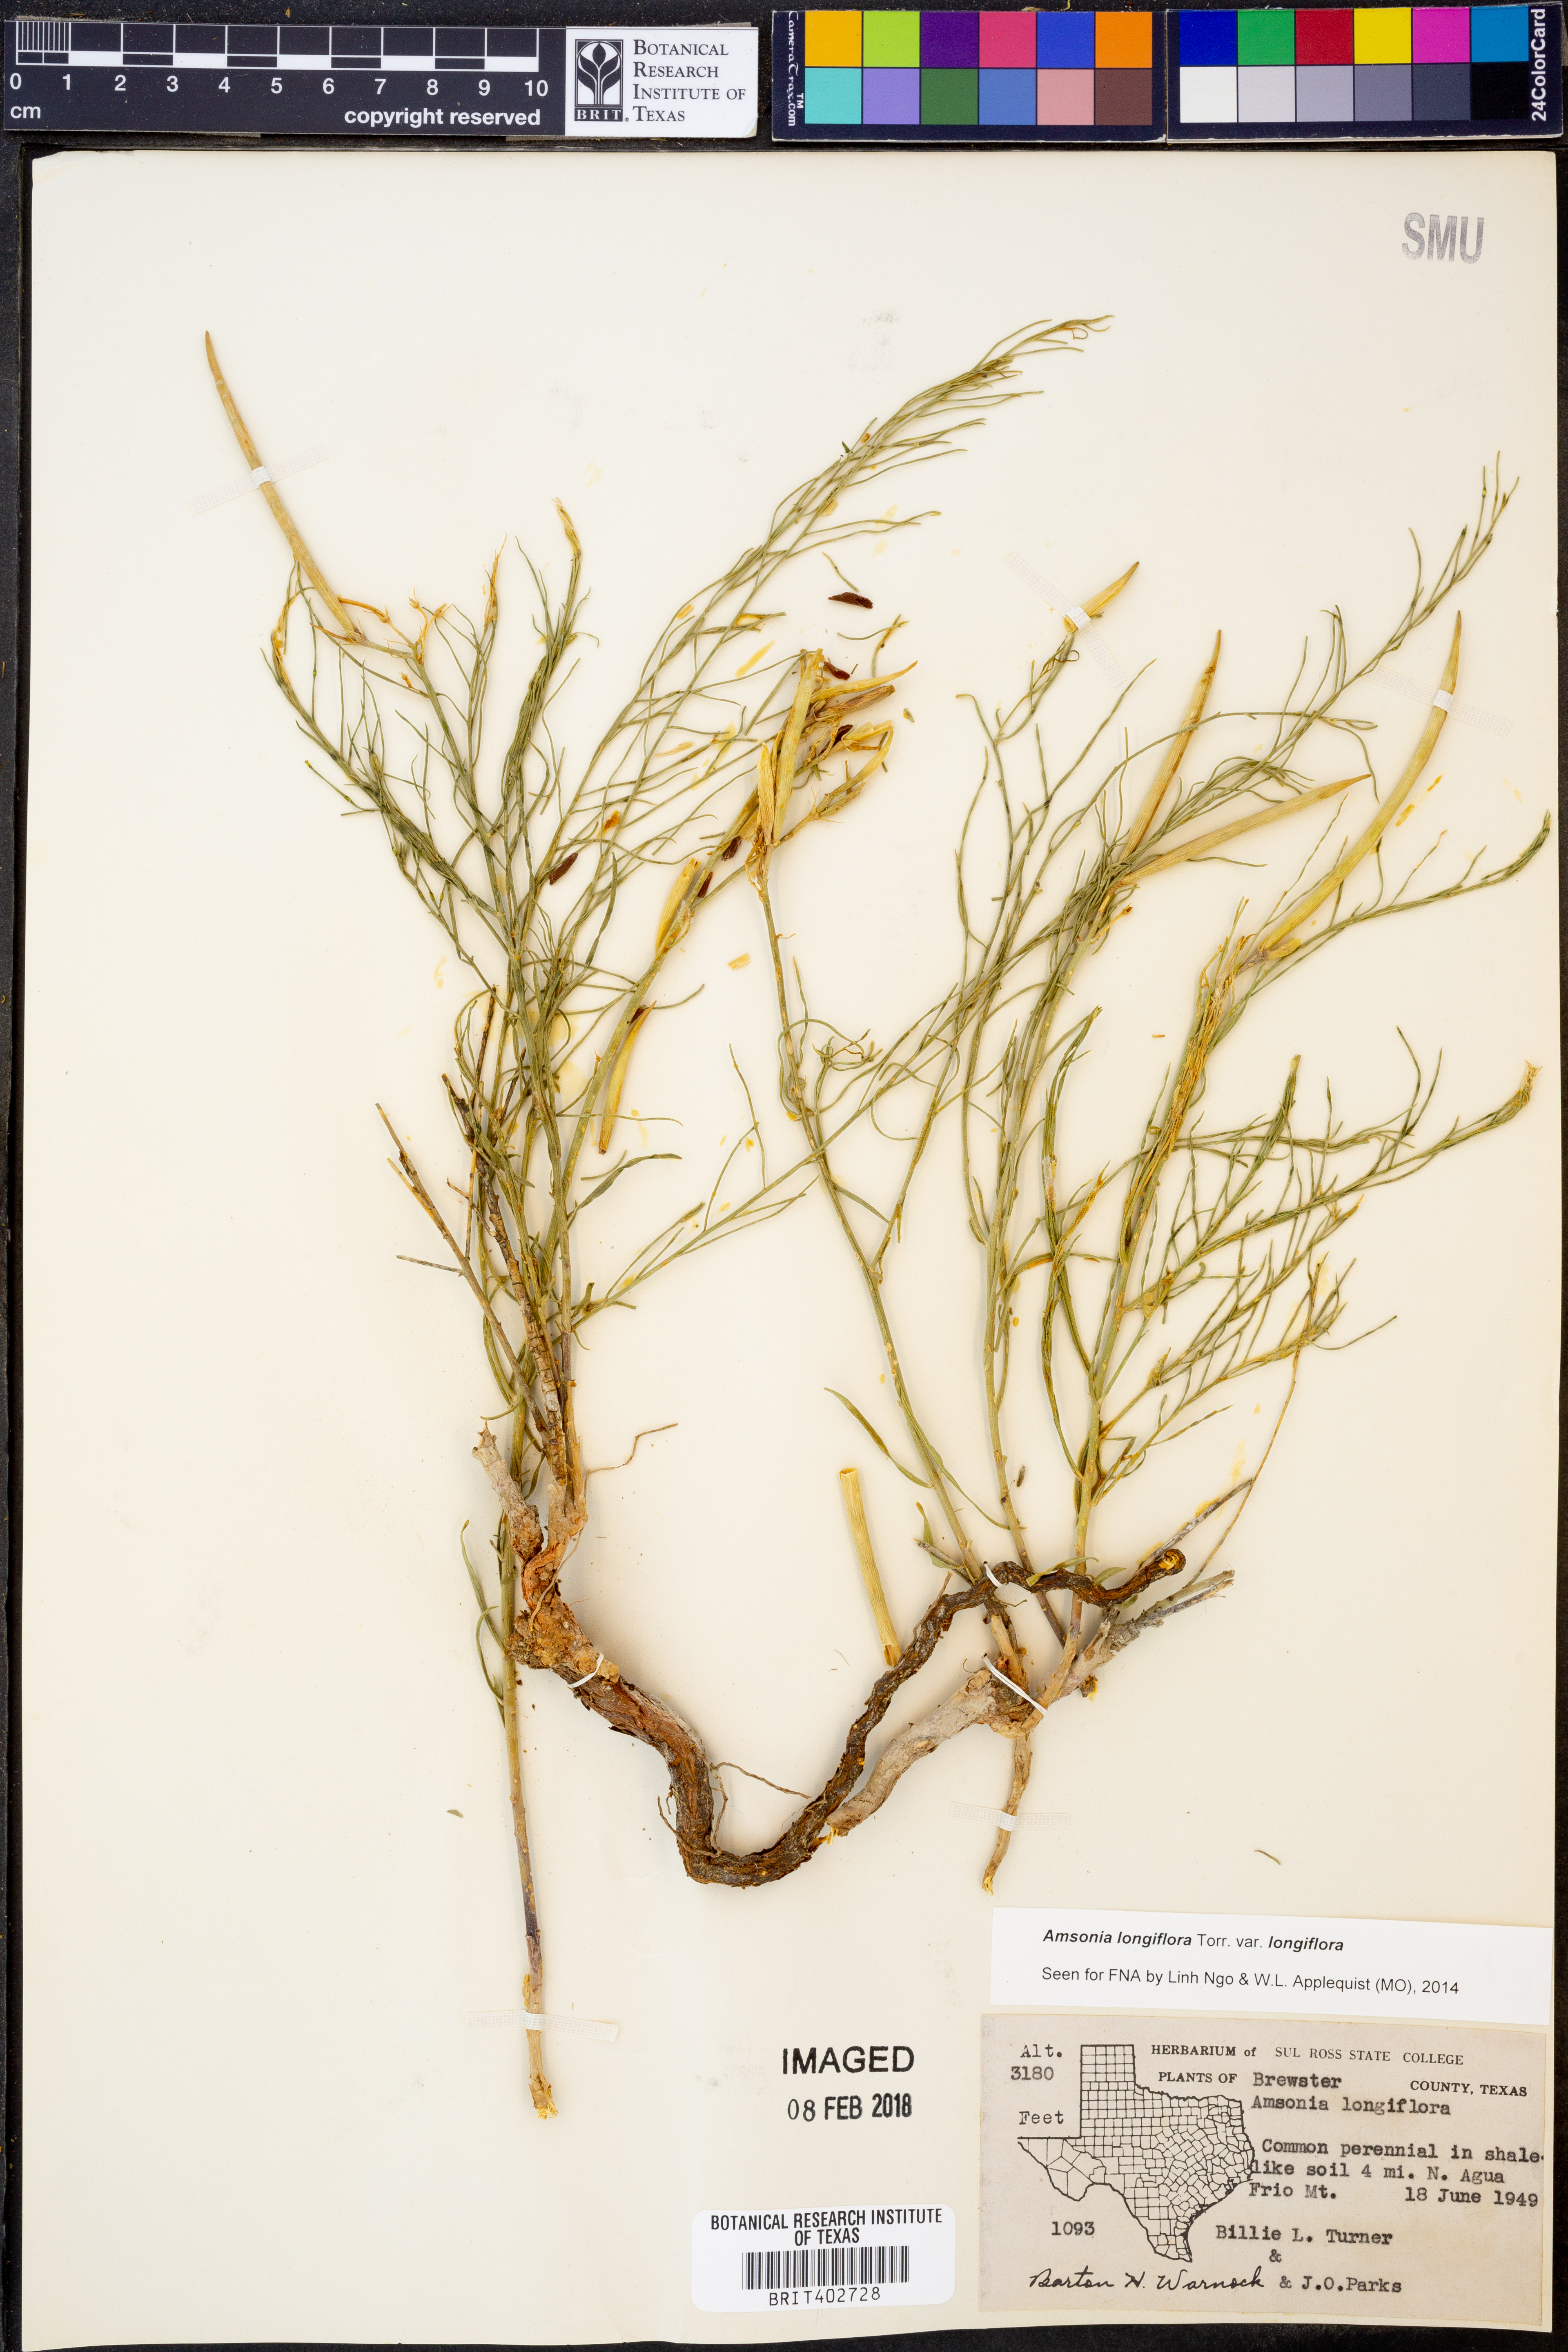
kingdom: Plantae
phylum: Tracheophyta
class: Magnoliopsida
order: Gentianales
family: Apocynaceae
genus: Amsonia
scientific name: Amsonia longiflora
